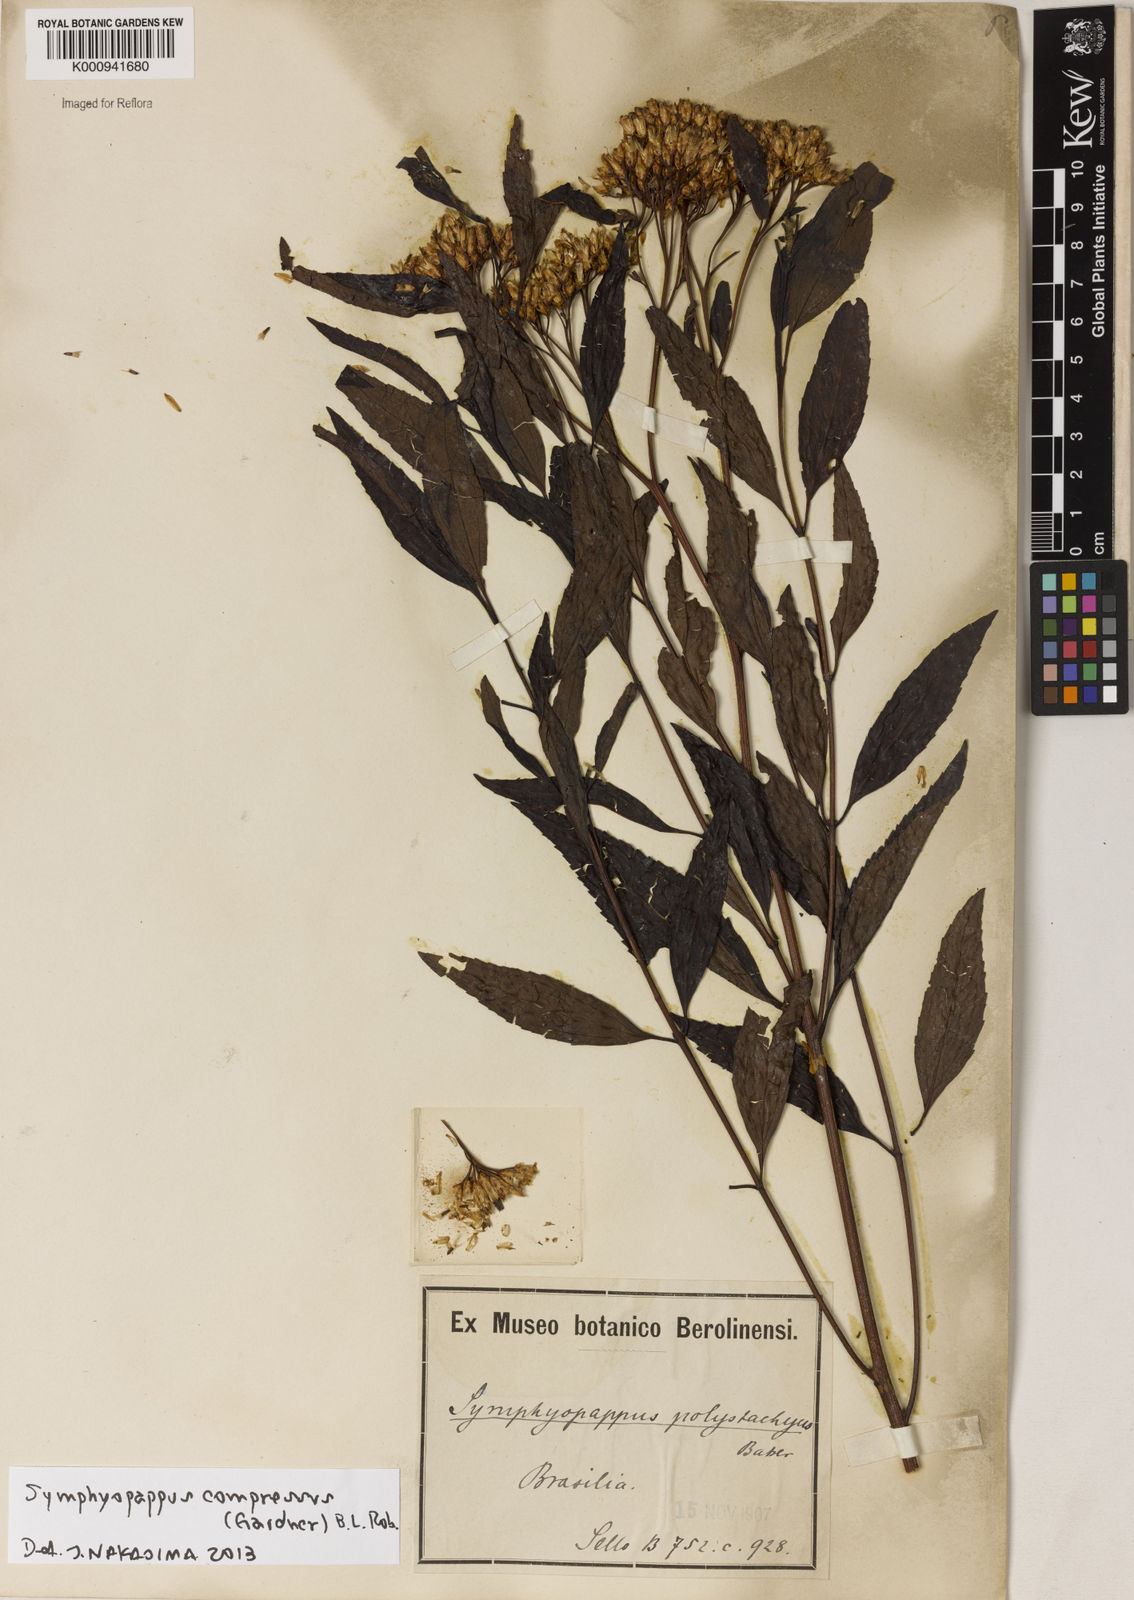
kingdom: Plantae
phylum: Tracheophyta
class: Magnoliopsida
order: Asterales
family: Asteraceae
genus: Symphyopappus
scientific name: Symphyopappus compressus
